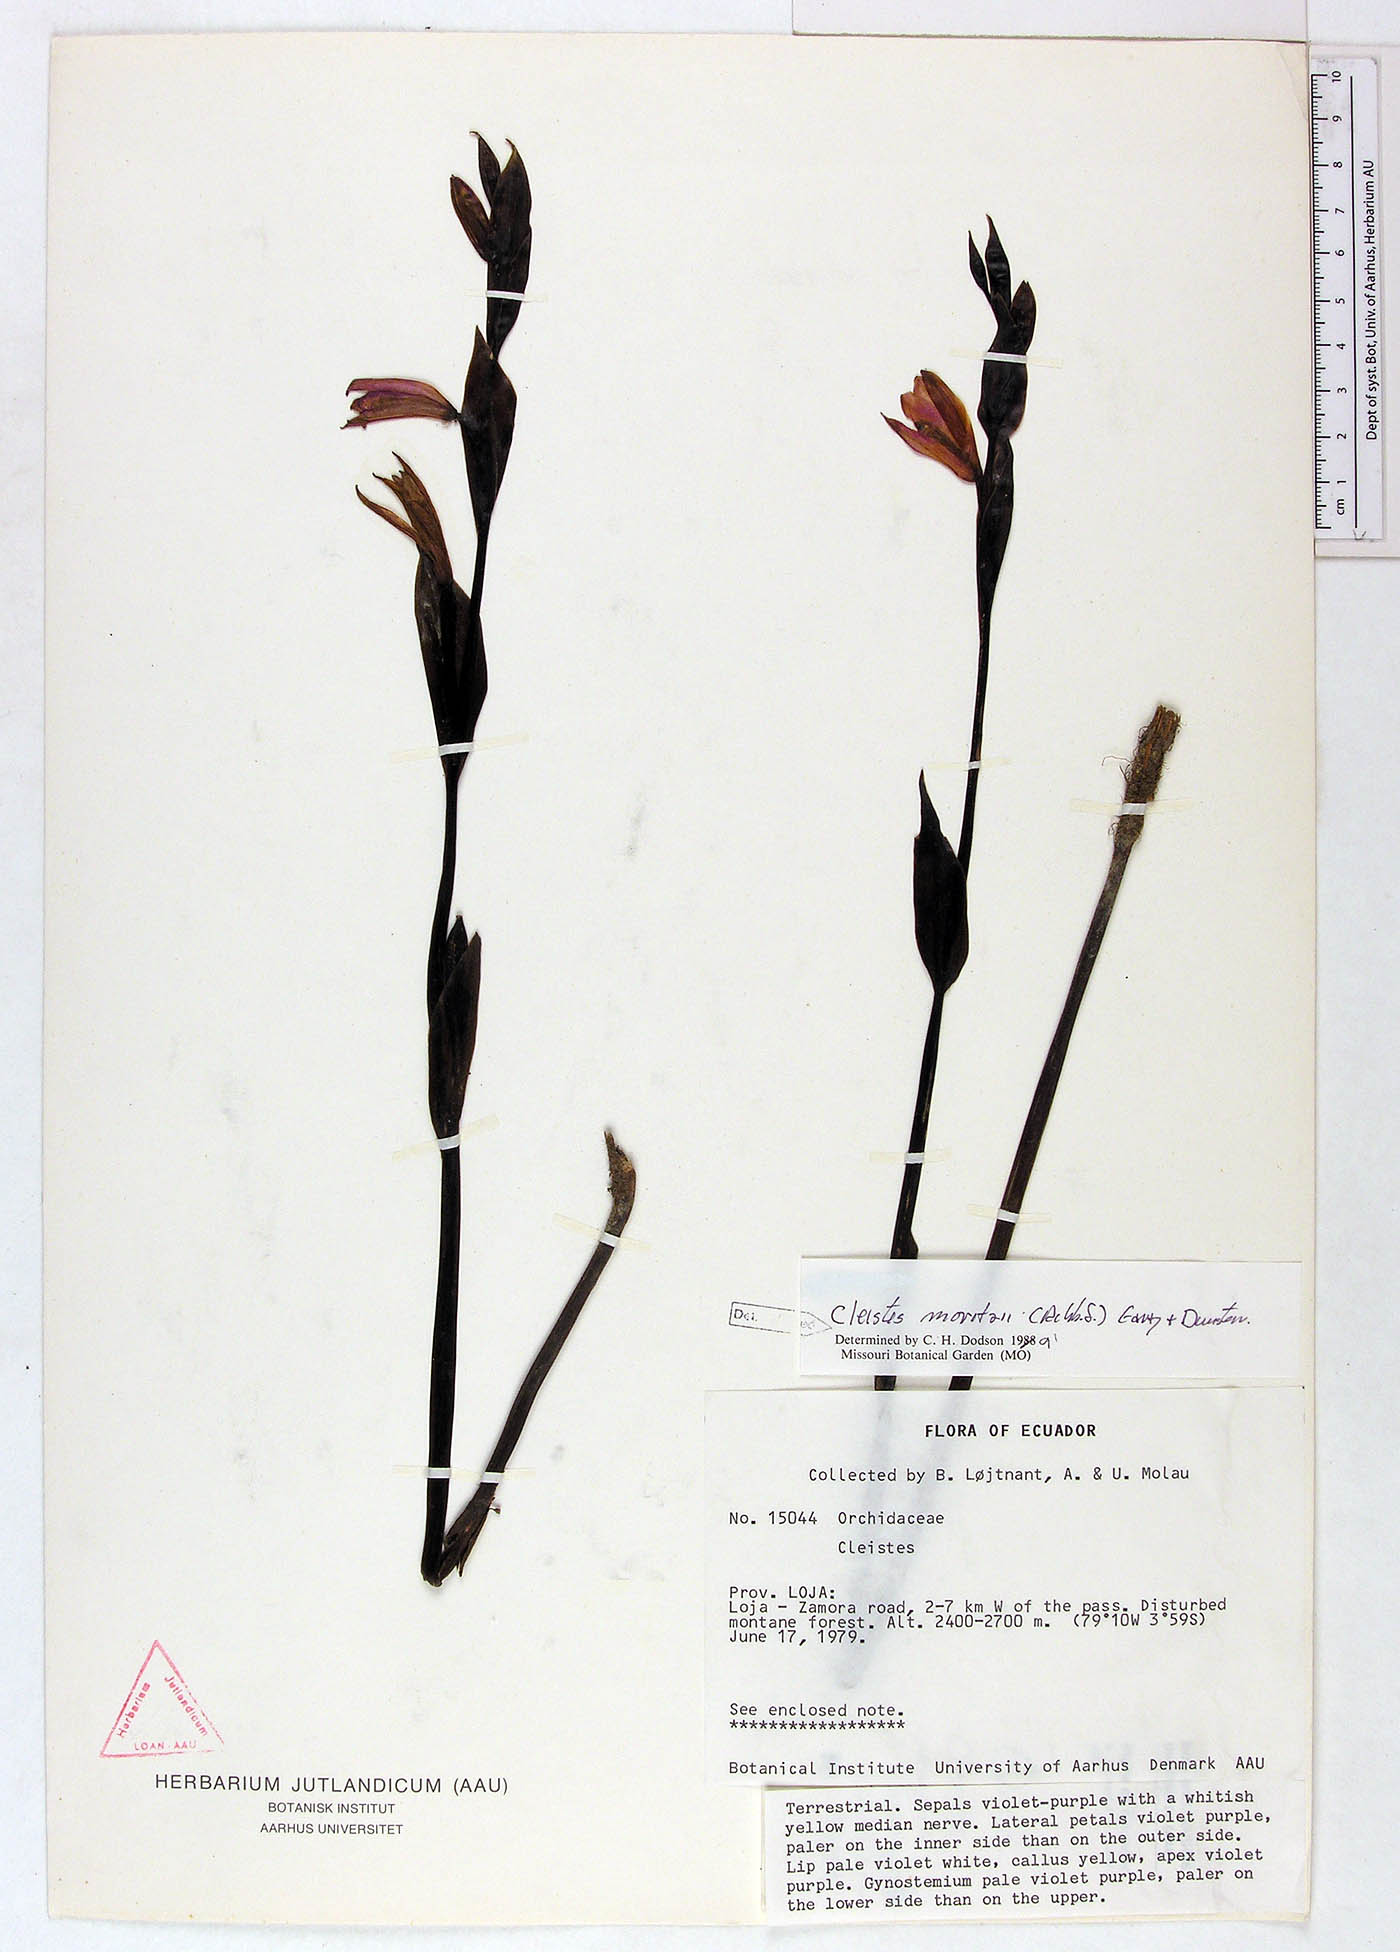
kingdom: Plantae
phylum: Tracheophyta
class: Liliopsida
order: Asparagales
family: Orchidaceae
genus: Cleistes
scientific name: Cleistes moritzii
